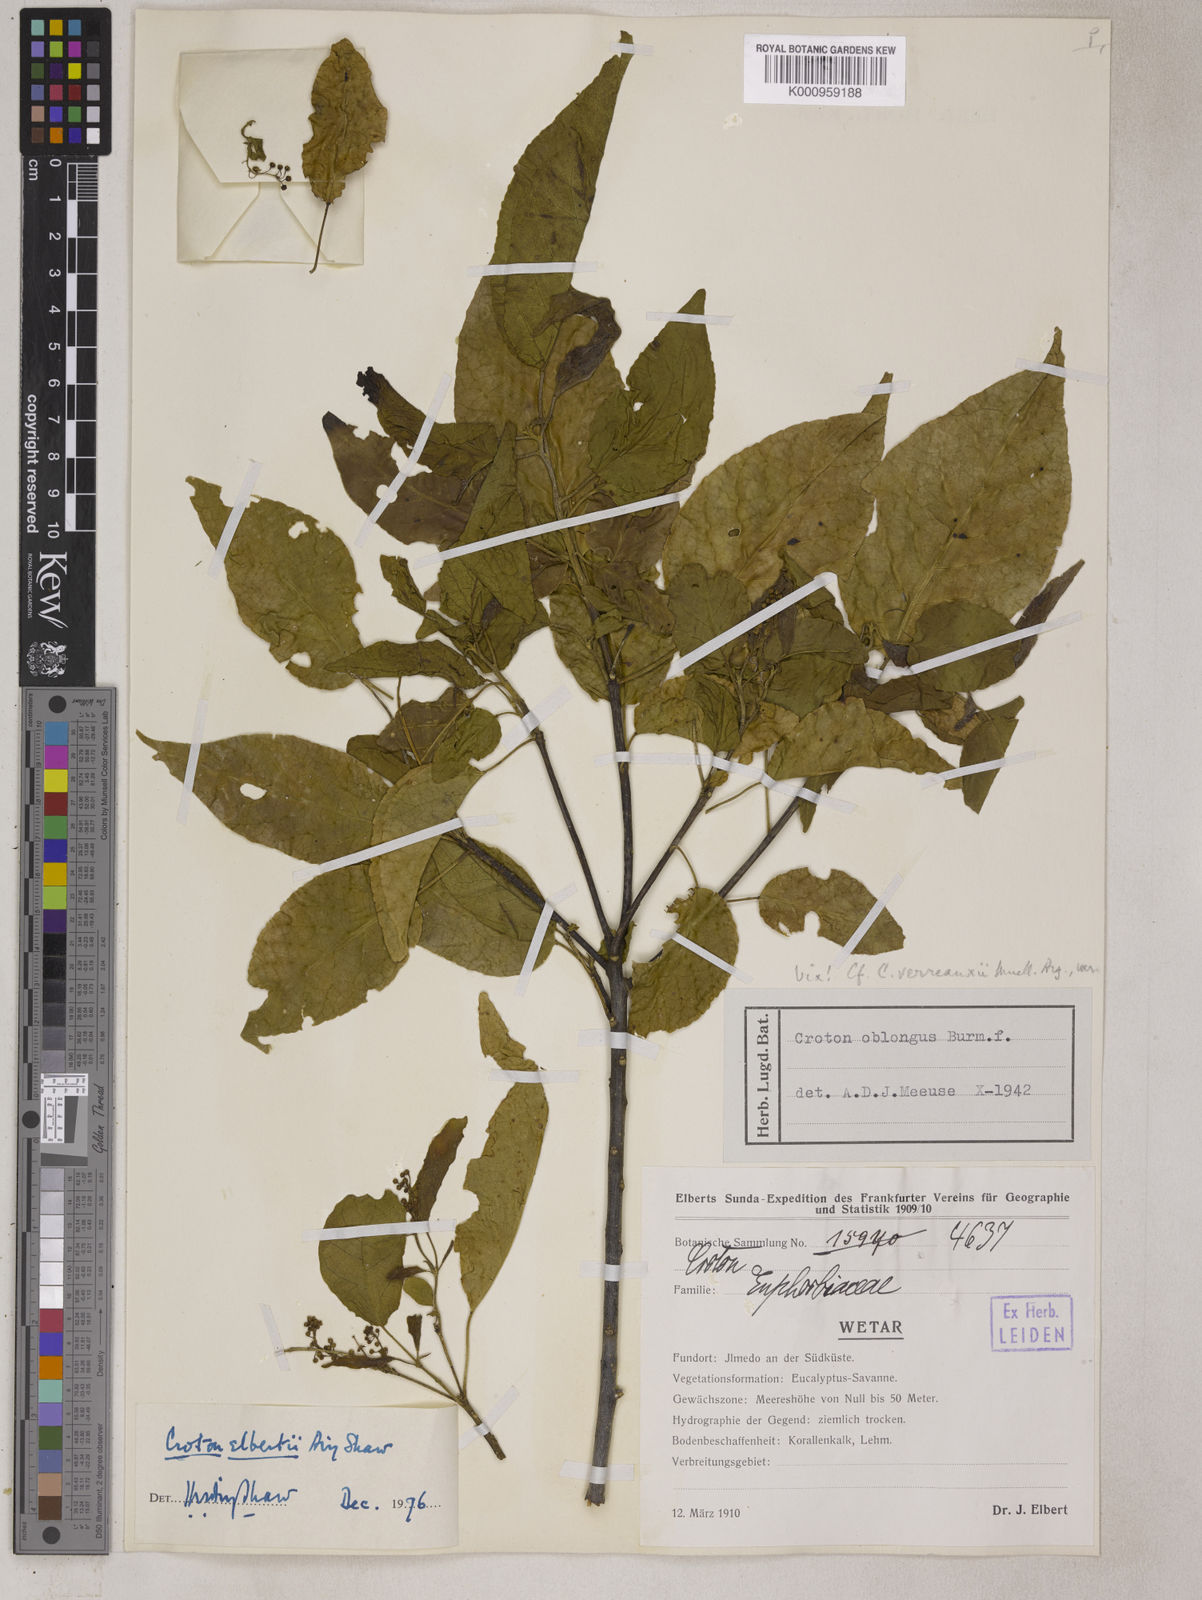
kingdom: Plantae
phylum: Tracheophyta
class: Magnoliopsida
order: Malpighiales
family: Euphorbiaceae
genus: Croton
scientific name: Croton elbertii
